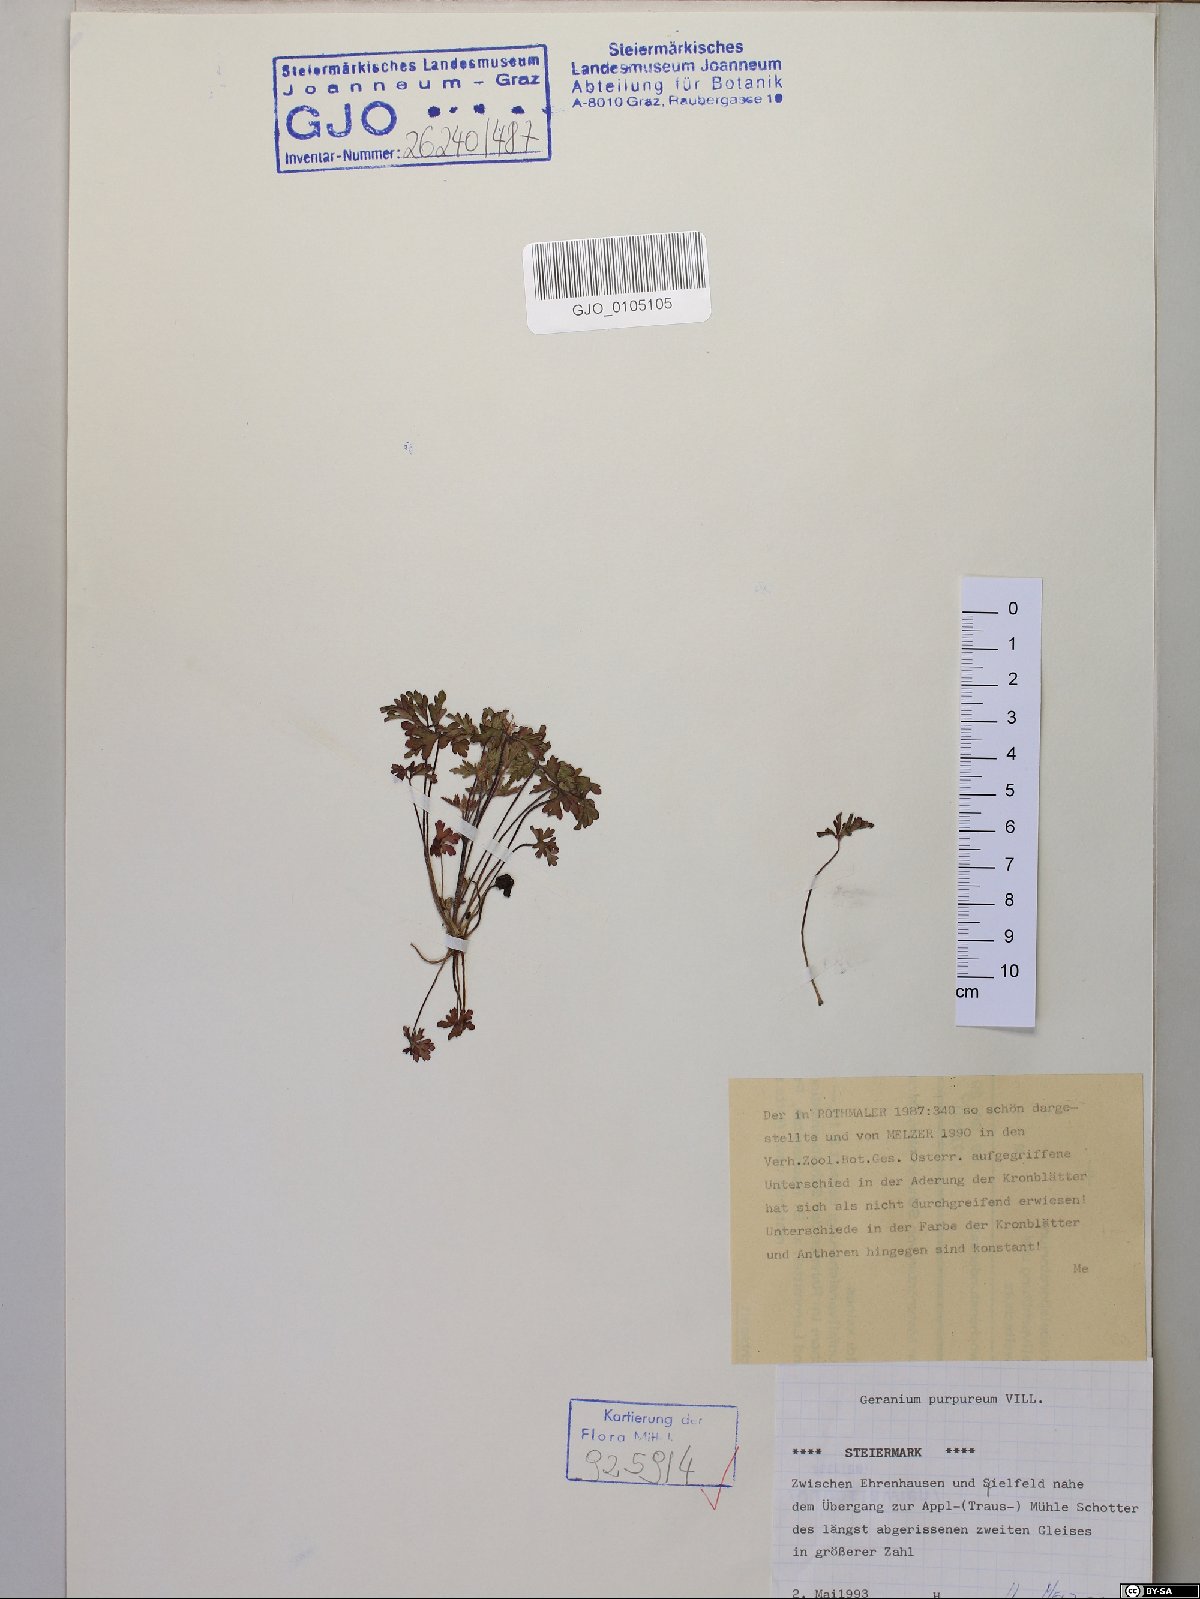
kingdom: Plantae
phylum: Tracheophyta
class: Magnoliopsida
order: Geraniales
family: Geraniaceae
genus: Geranium
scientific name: Geranium purpureum
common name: Little-robin
